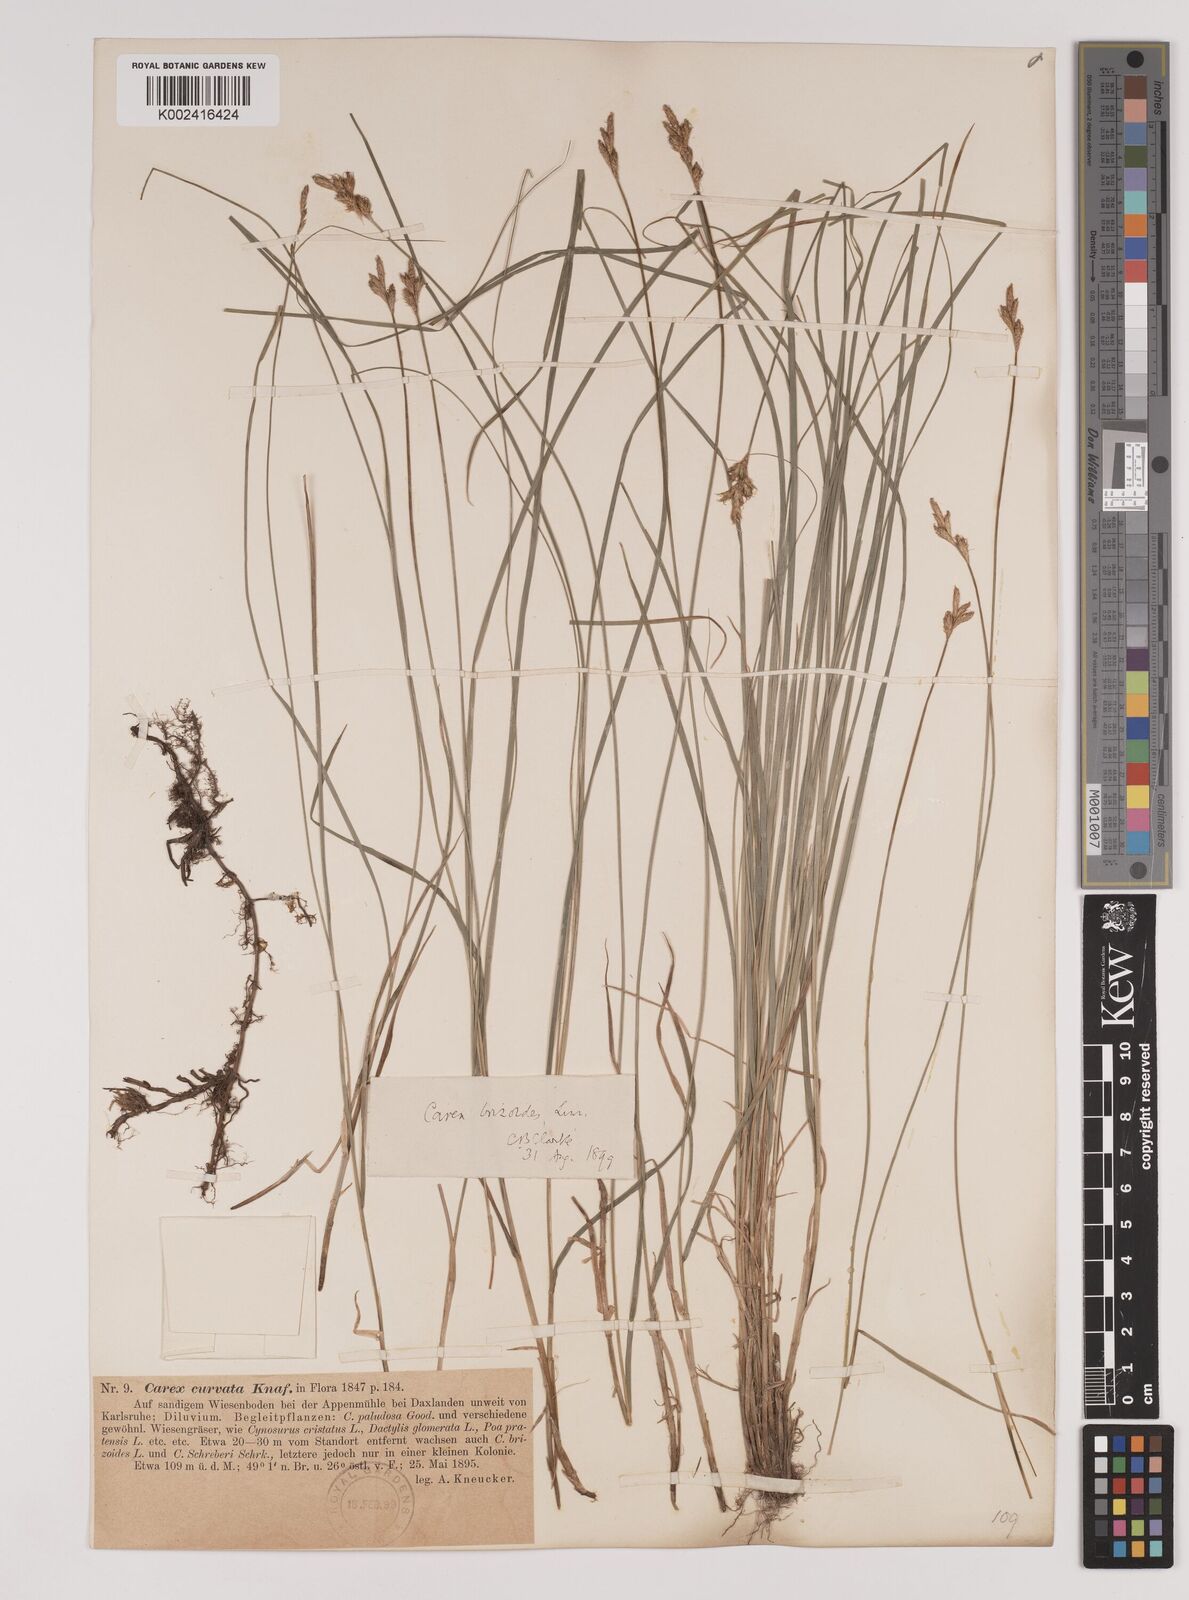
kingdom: Plantae
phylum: Tracheophyta
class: Liliopsida
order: Poales
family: Cyperaceae
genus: Carex
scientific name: Carex brizoides
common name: Quaking-grass sedge
